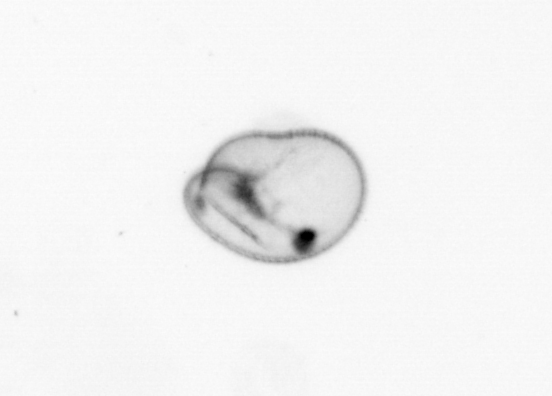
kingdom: Chromista
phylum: Myzozoa
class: Dinophyceae
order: Noctilucales
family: Noctilucaceae
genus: Noctiluca
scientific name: Noctiluca scintillans
